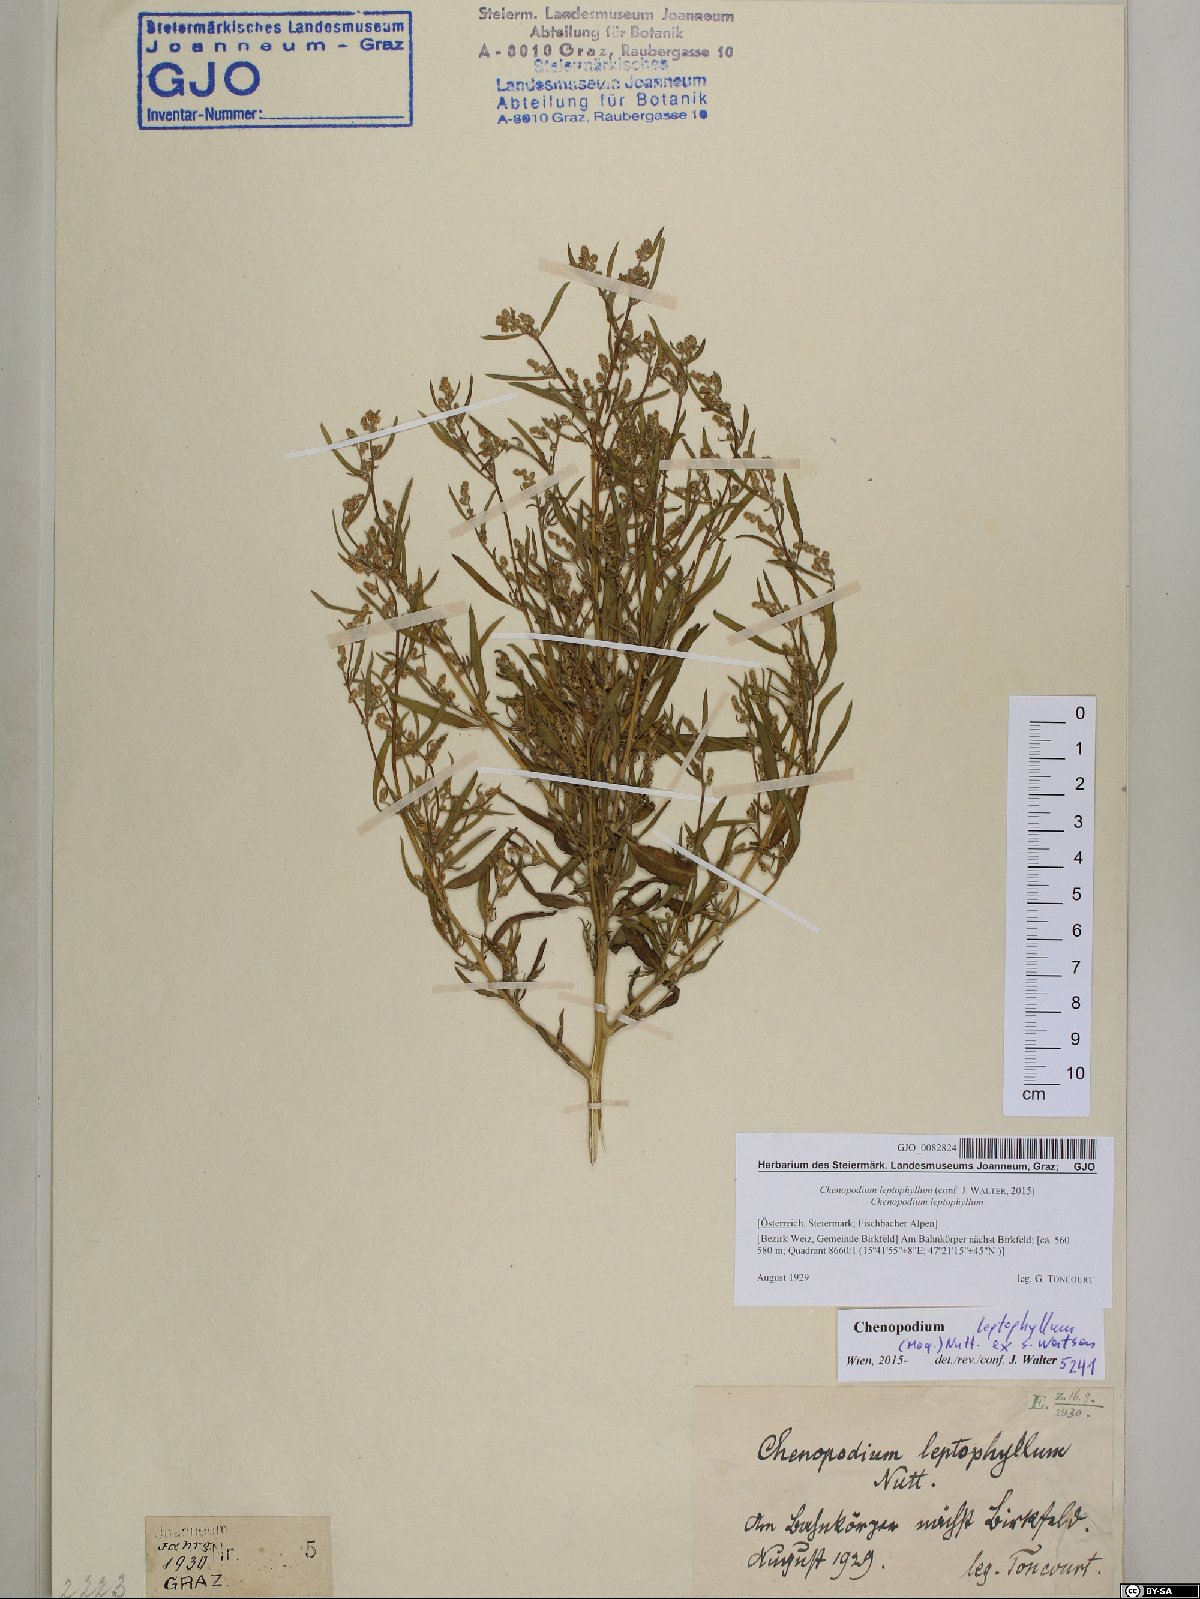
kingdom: Plantae
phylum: Tracheophyta
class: Magnoliopsida
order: Caryophyllales
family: Amaranthaceae
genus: Chenopodium
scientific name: Chenopodium leptophyllum
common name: Narrow-leaf goosefoot
